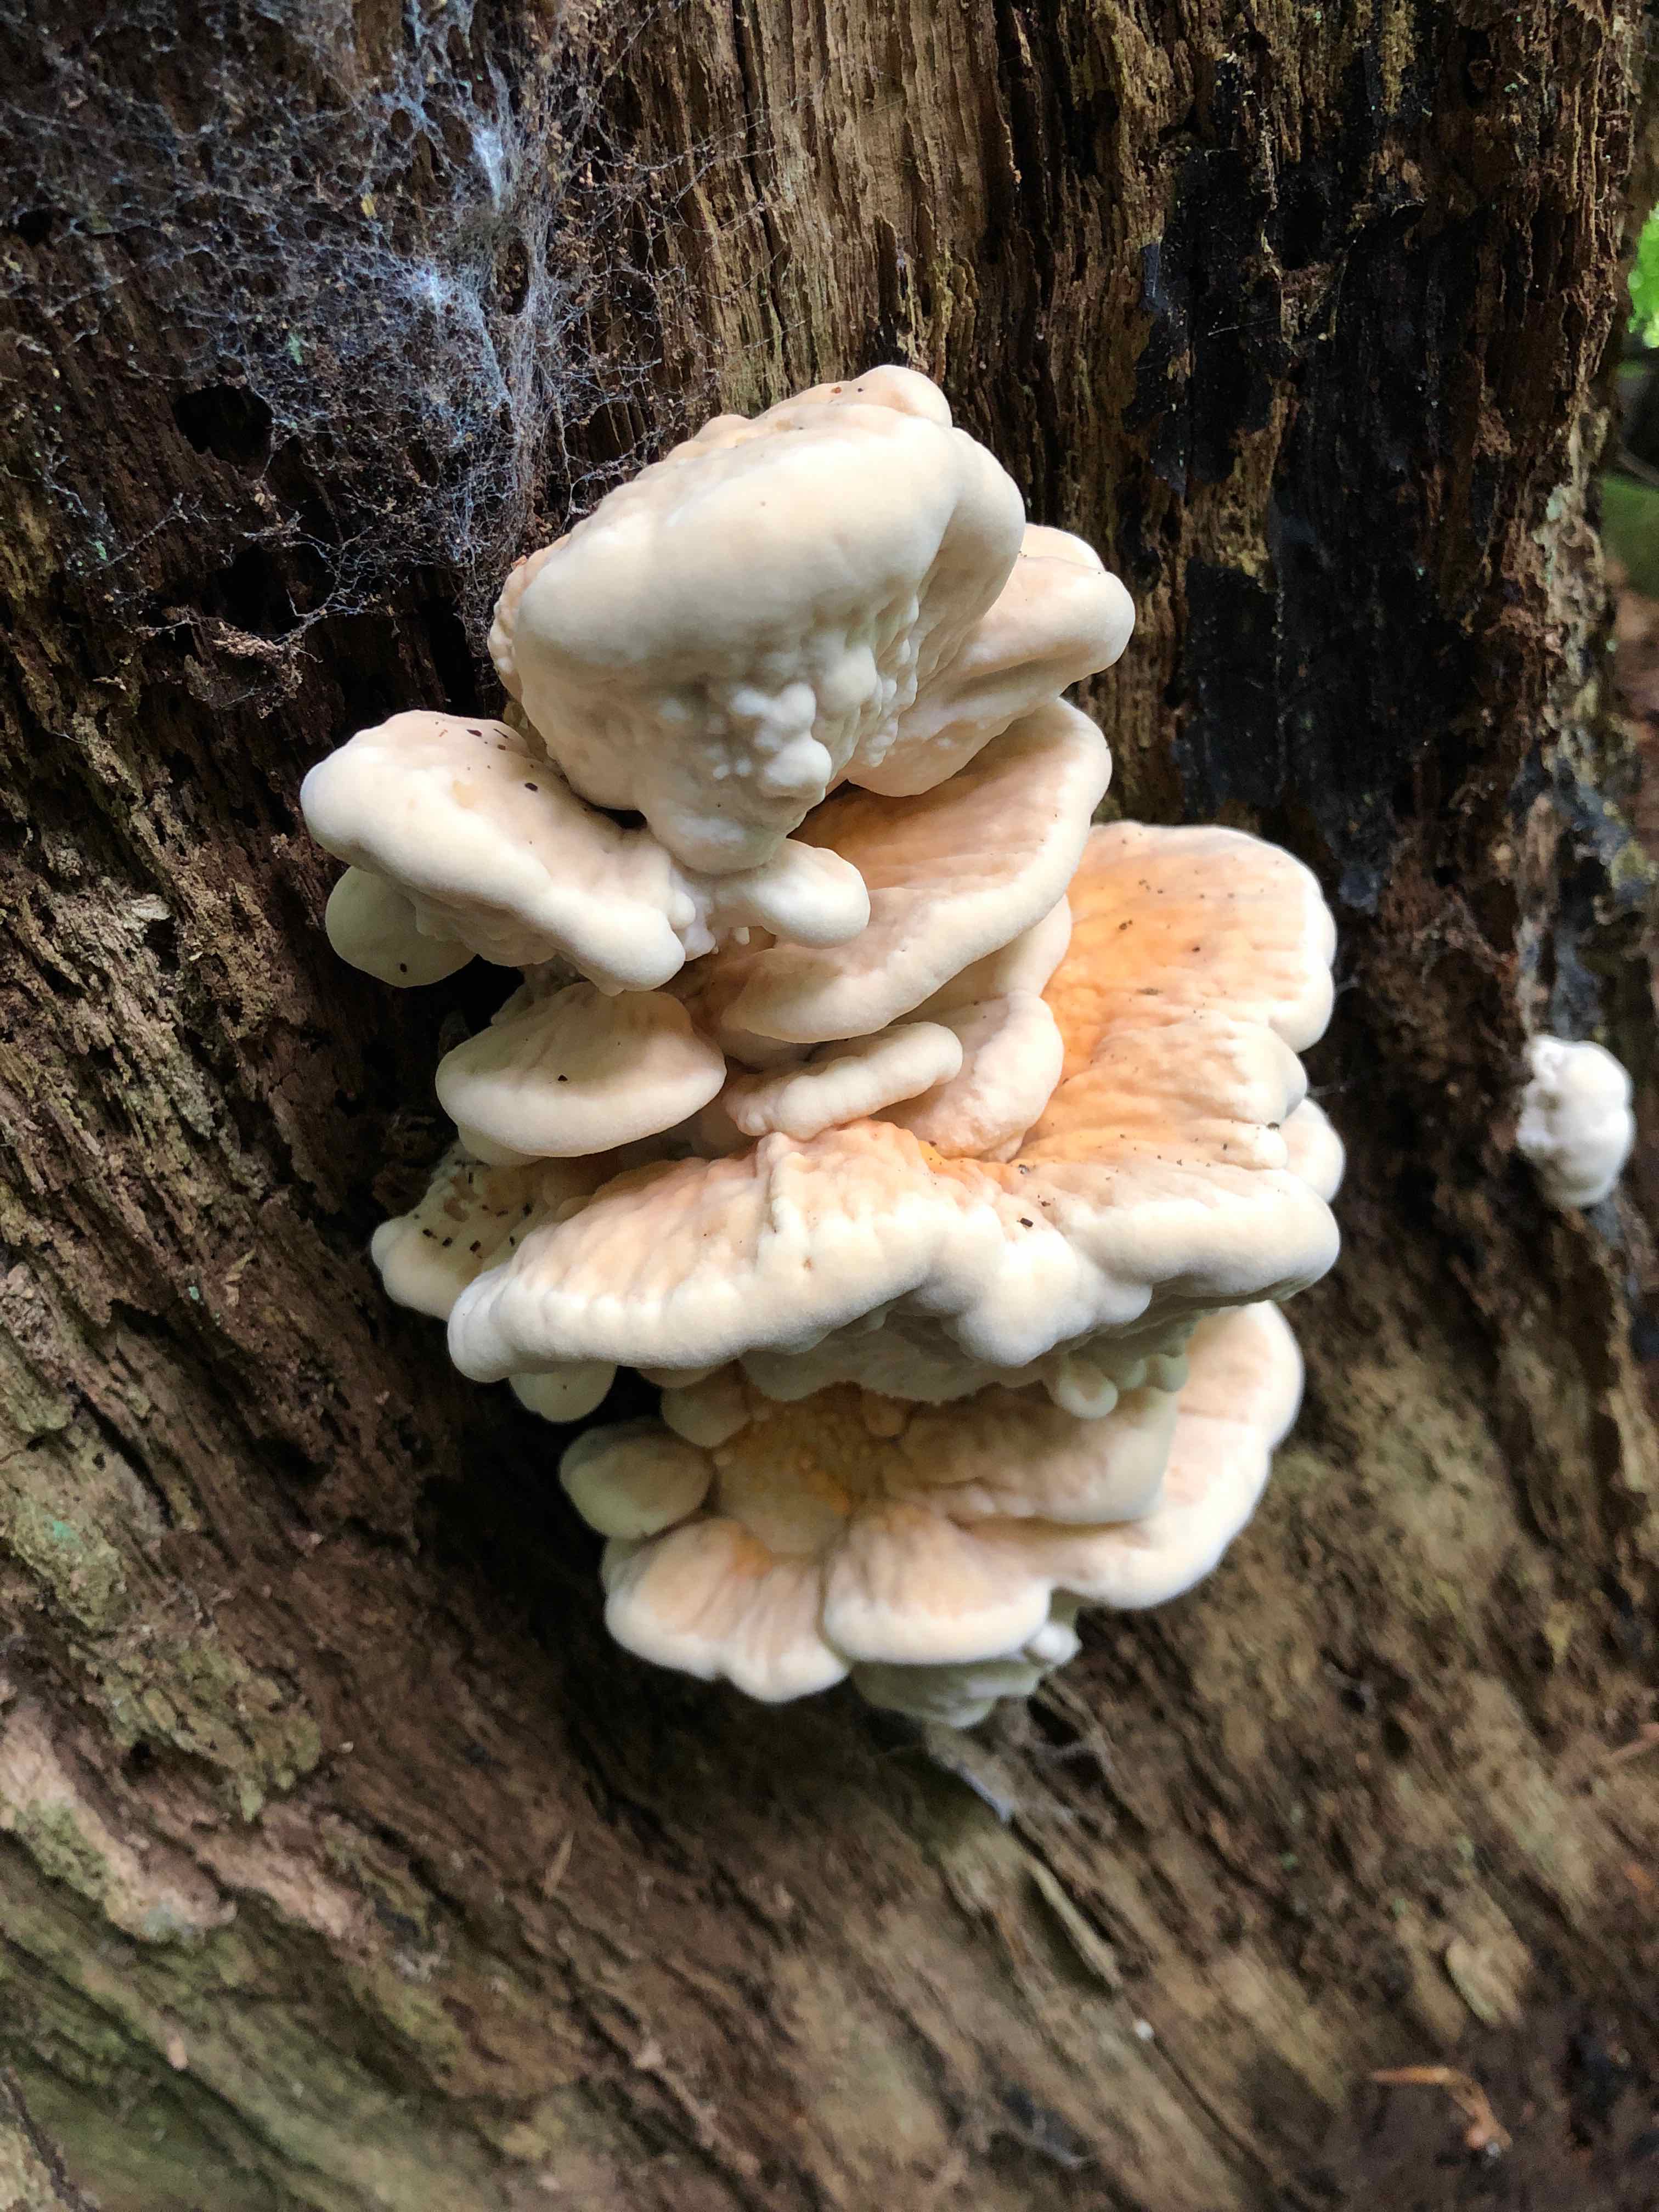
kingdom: Fungi
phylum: Basidiomycota
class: Agaricomycetes
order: Polyporales
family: Laetiporaceae
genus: Laetiporus
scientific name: Laetiporus sulphureus
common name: svovlporesvamp
